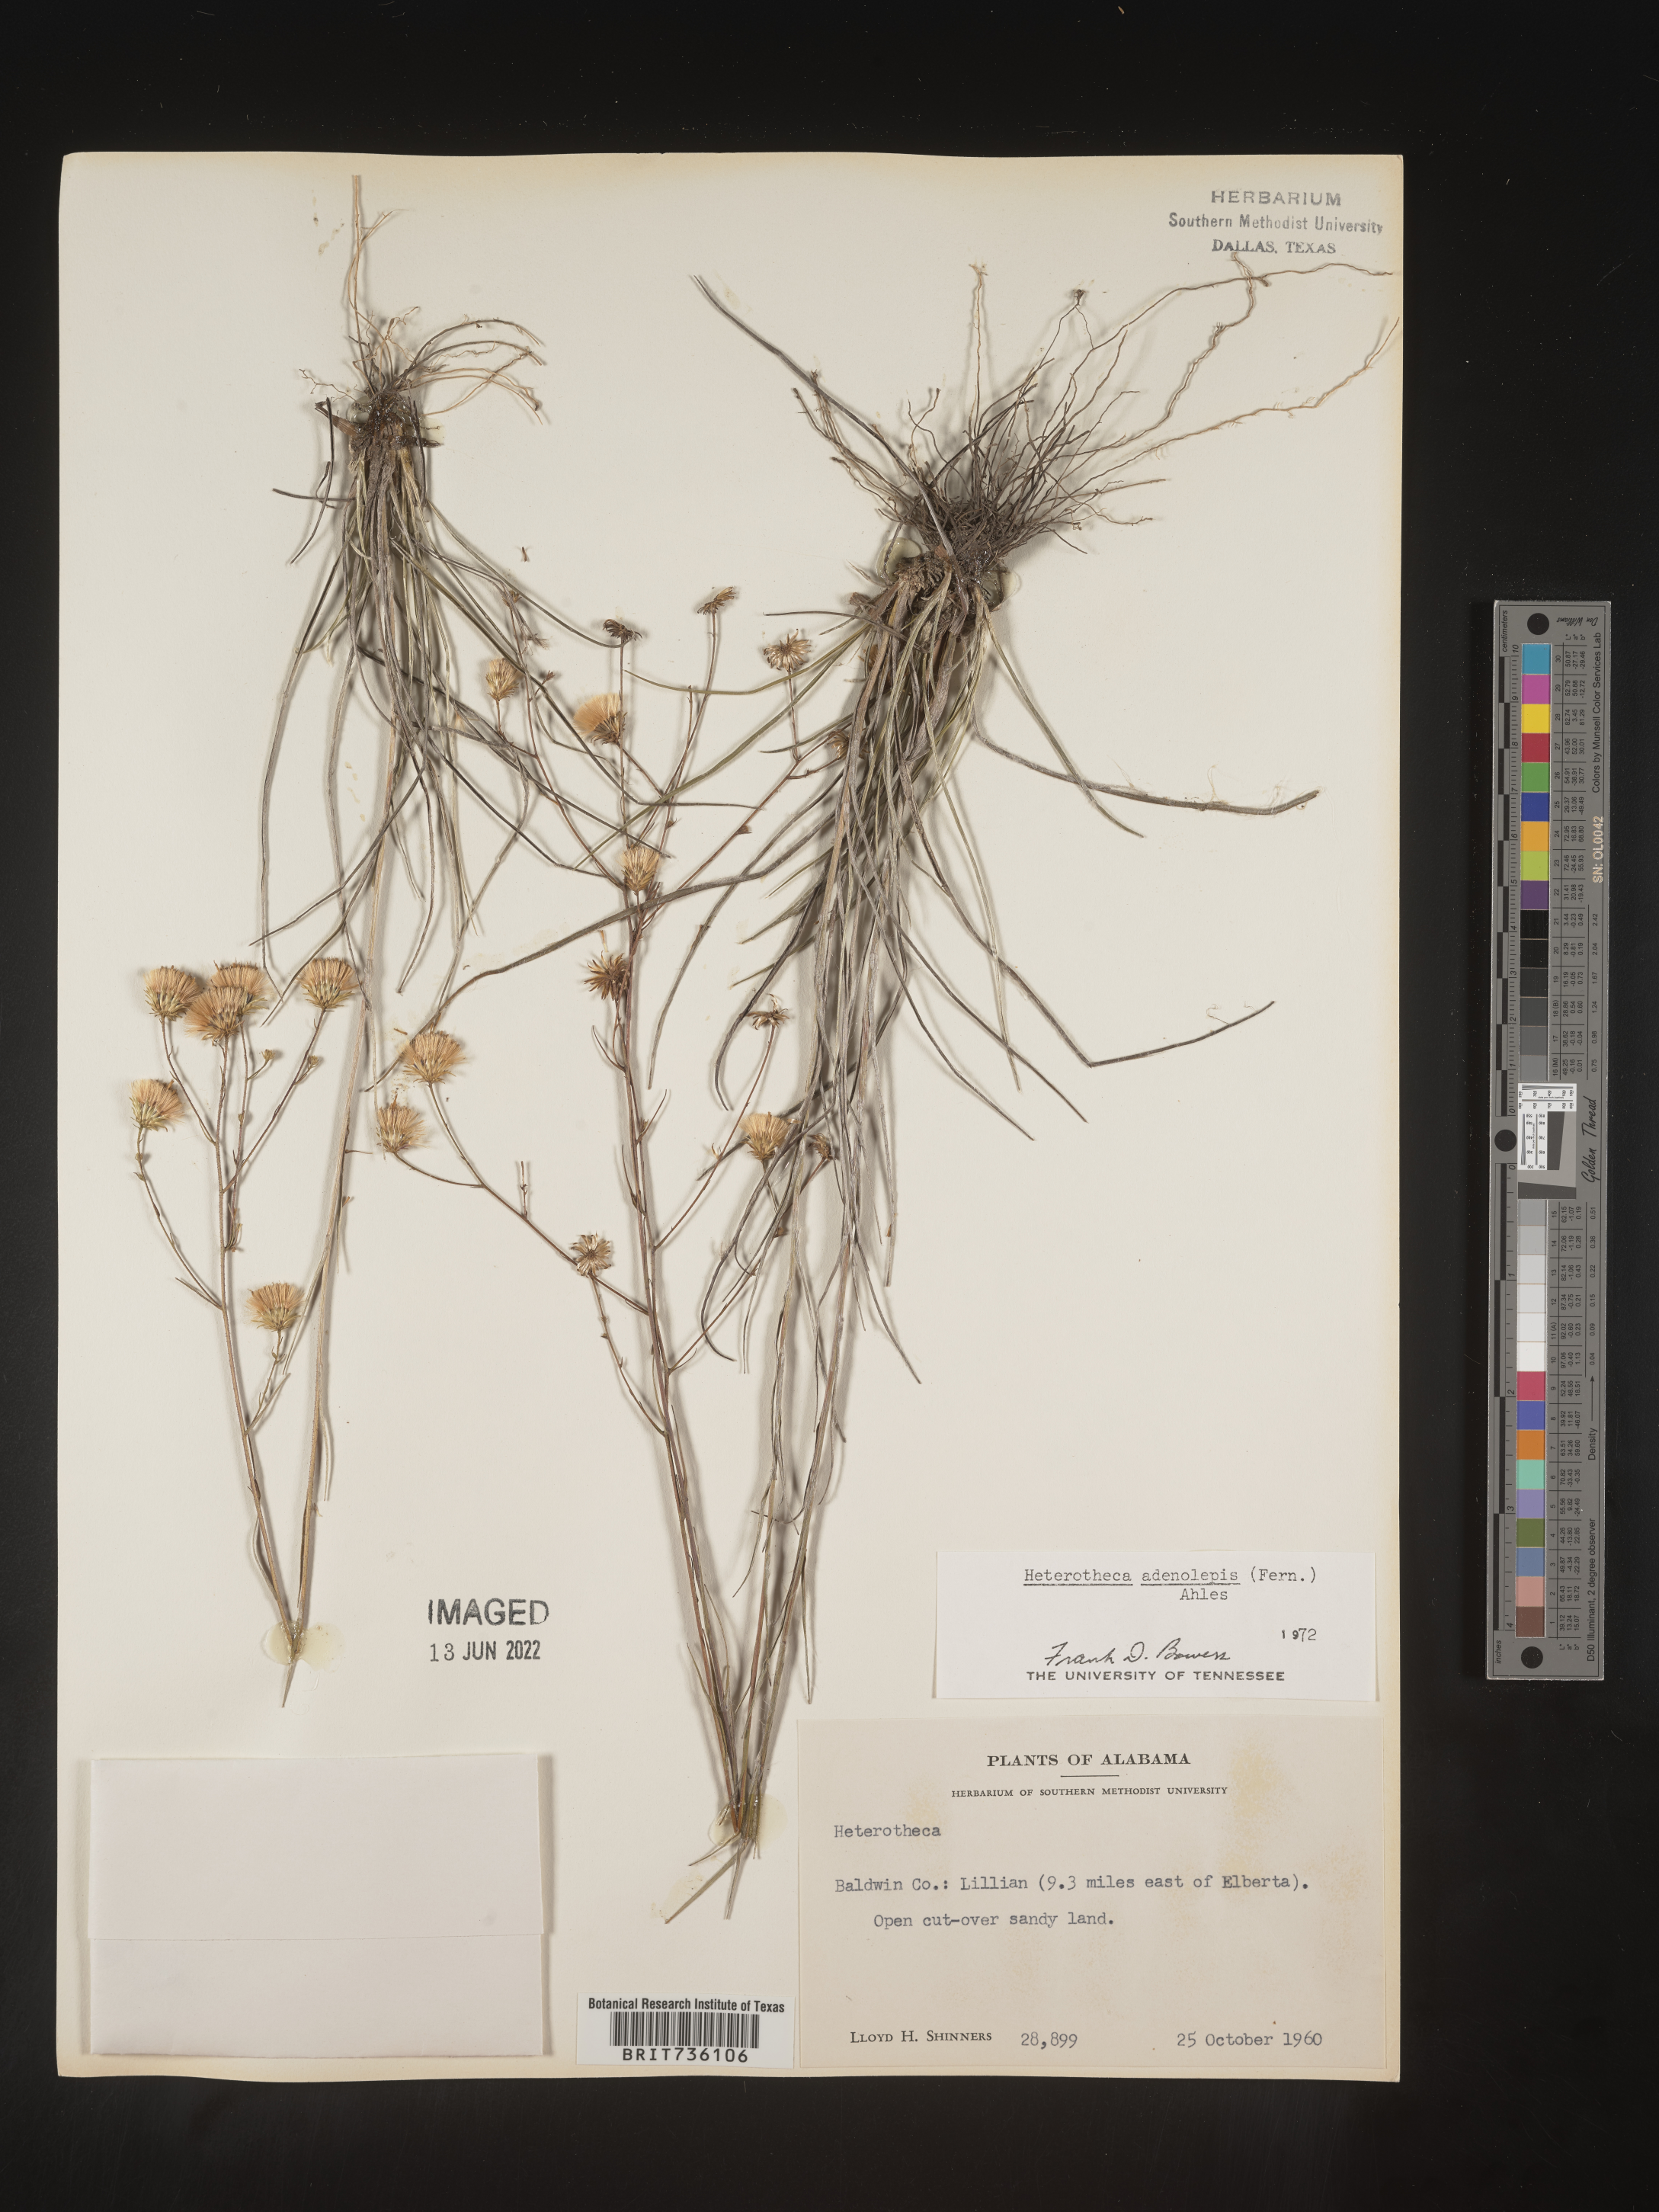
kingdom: Plantae
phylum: Tracheophyta
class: Magnoliopsida
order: Asterales
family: Asteraceae
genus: Pityopsis
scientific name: Pityopsis aspera
